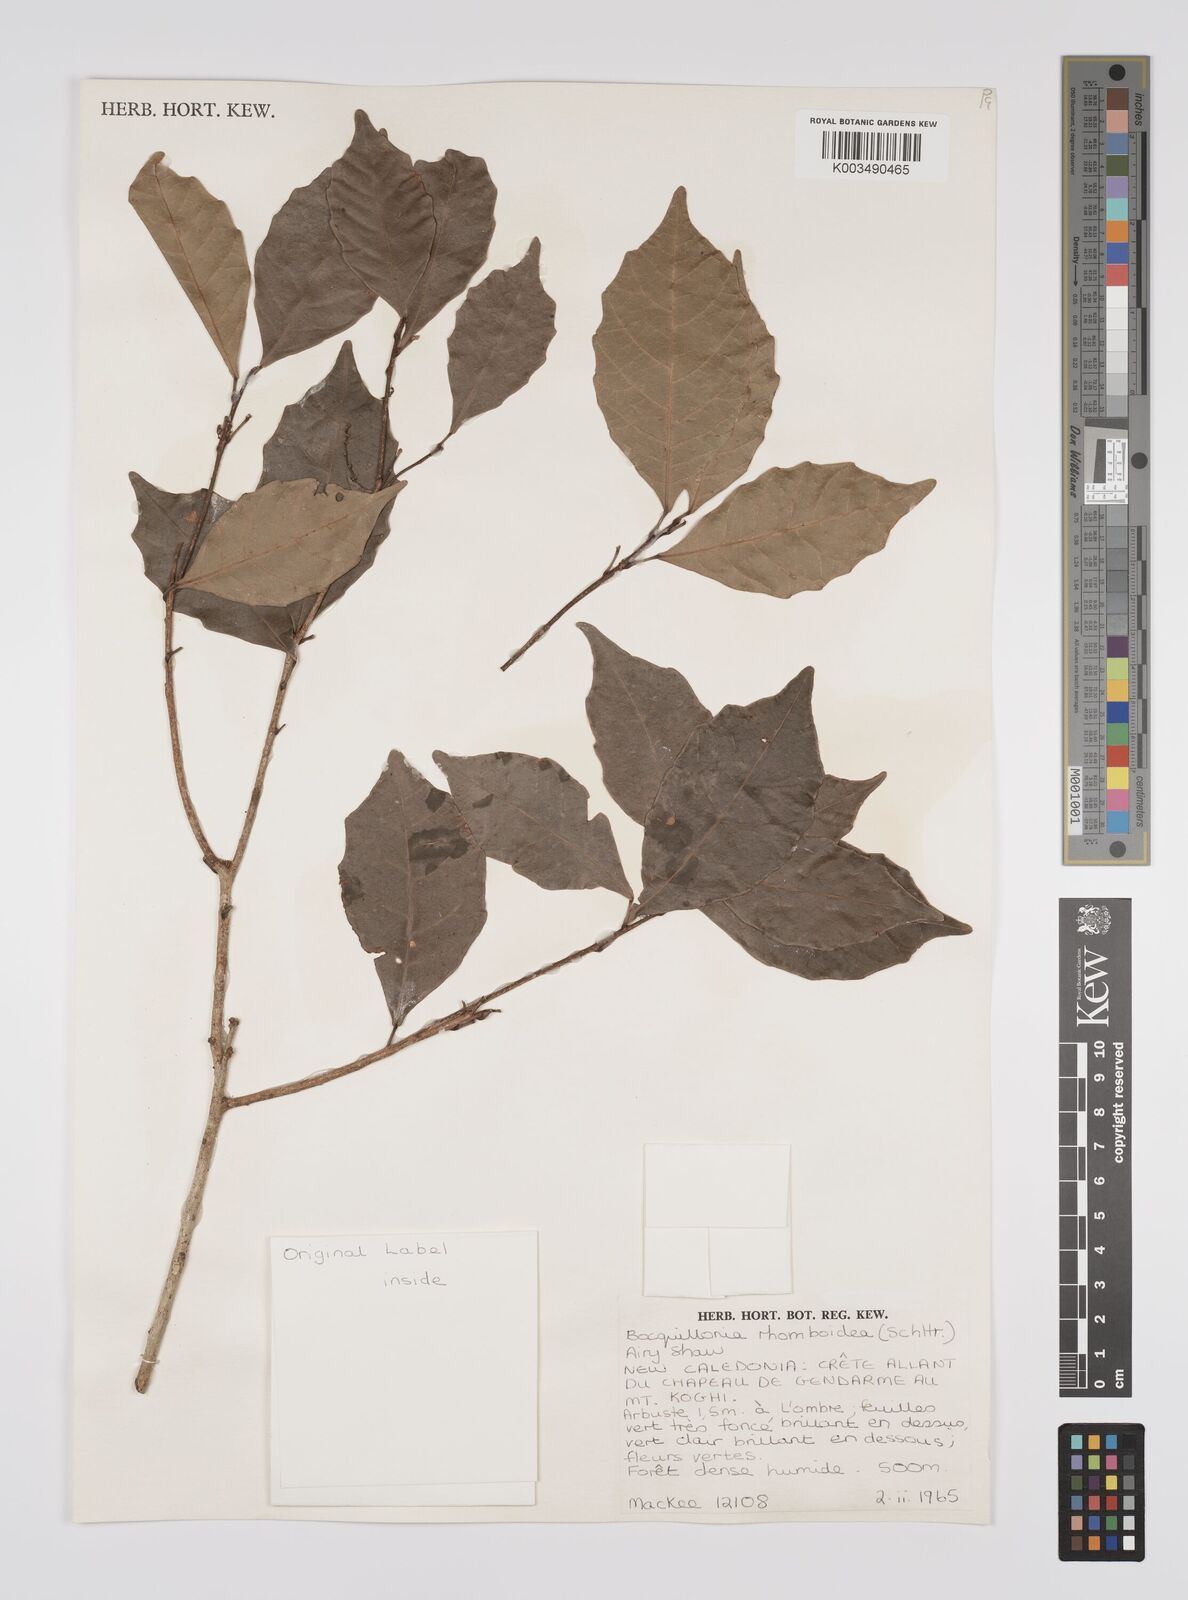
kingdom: Plantae
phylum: Tracheophyta
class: Magnoliopsida
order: Malpighiales
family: Euphorbiaceae
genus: Bocquillonia
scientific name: Bocquillonia rhomboidea
